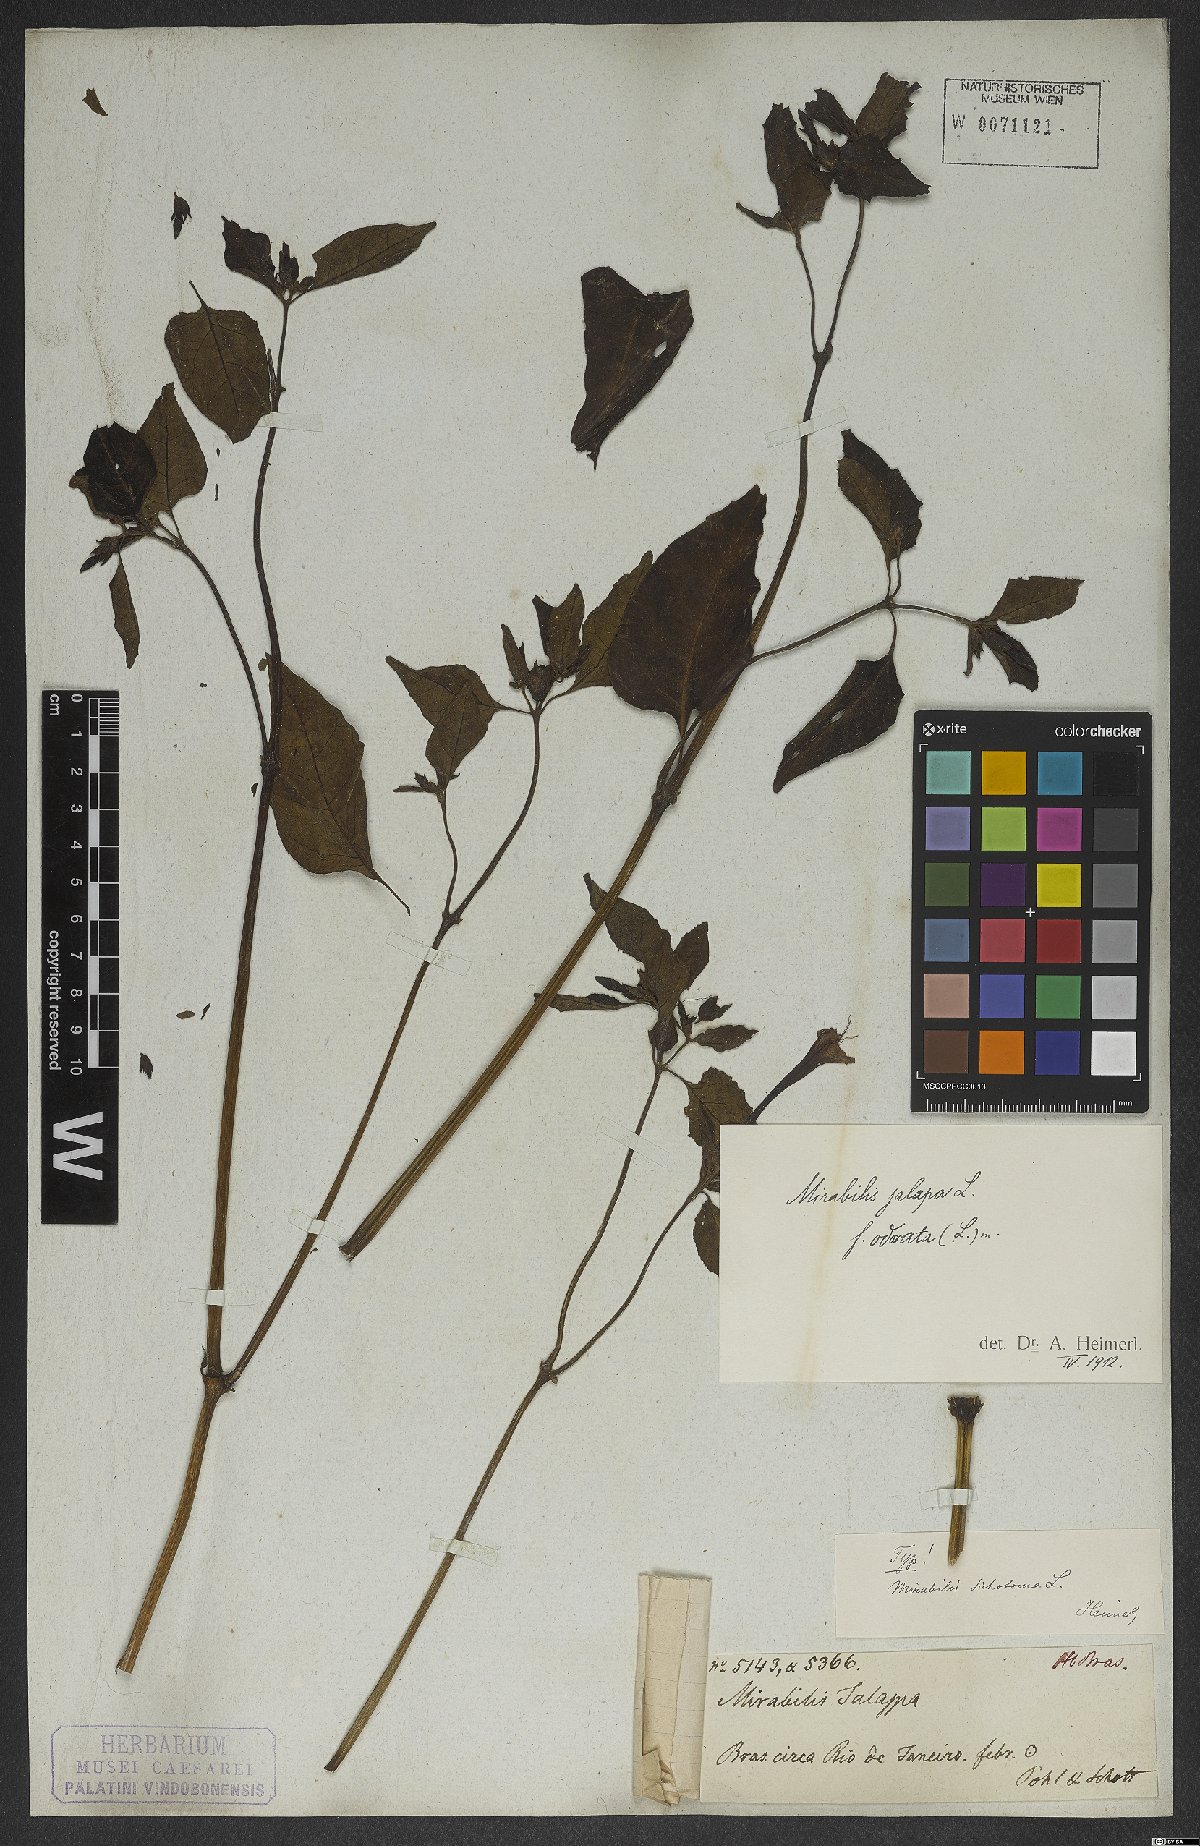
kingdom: Plantae
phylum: Tracheophyta
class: Magnoliopsida
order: Caryophyllales
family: Nyctaginaceae
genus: Mirabilis
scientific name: Mirabilis jalapa
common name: Marvel-of-peru
